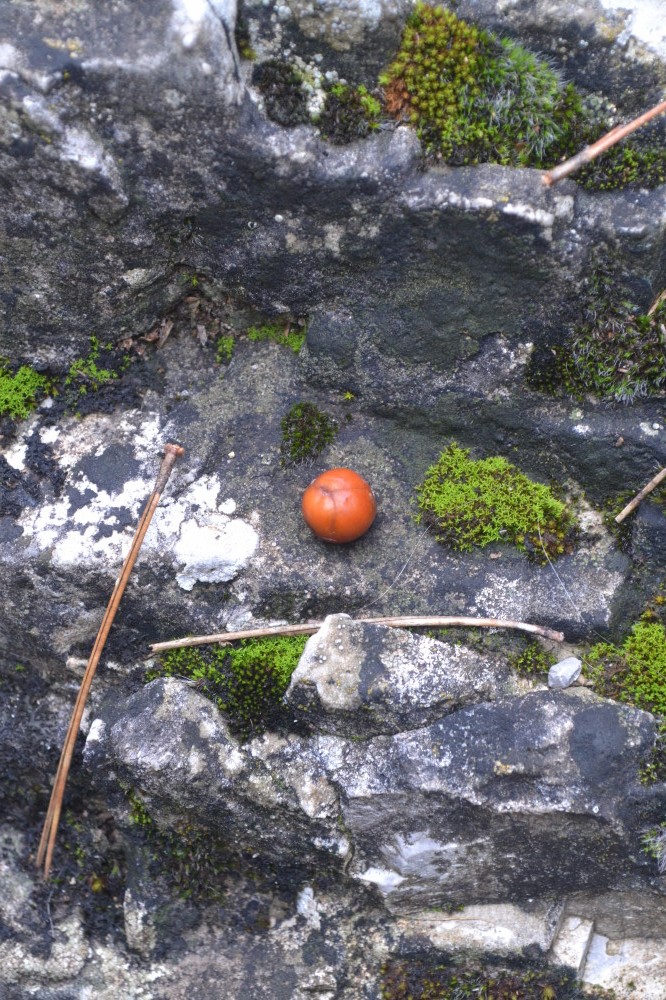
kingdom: Plantae
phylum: Tracheophyta
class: Pinopsida
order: Pinales
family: Cupressaceae
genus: Juniperus
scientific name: Juniperus oxycedrus
